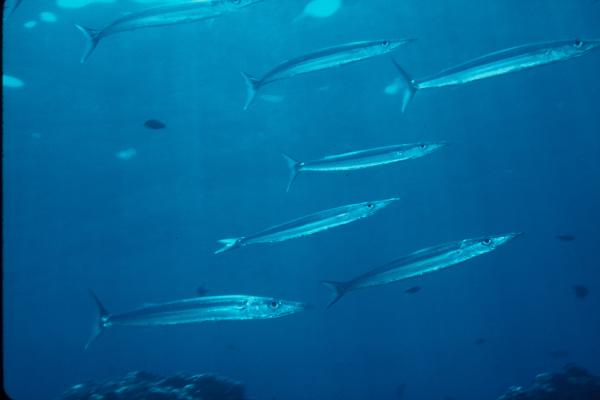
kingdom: Animalia
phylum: Chordata
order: Perciformes
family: Sphyraenidae
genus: Sphyraena
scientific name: Sphyraena helleri
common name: Heller's barracuda
